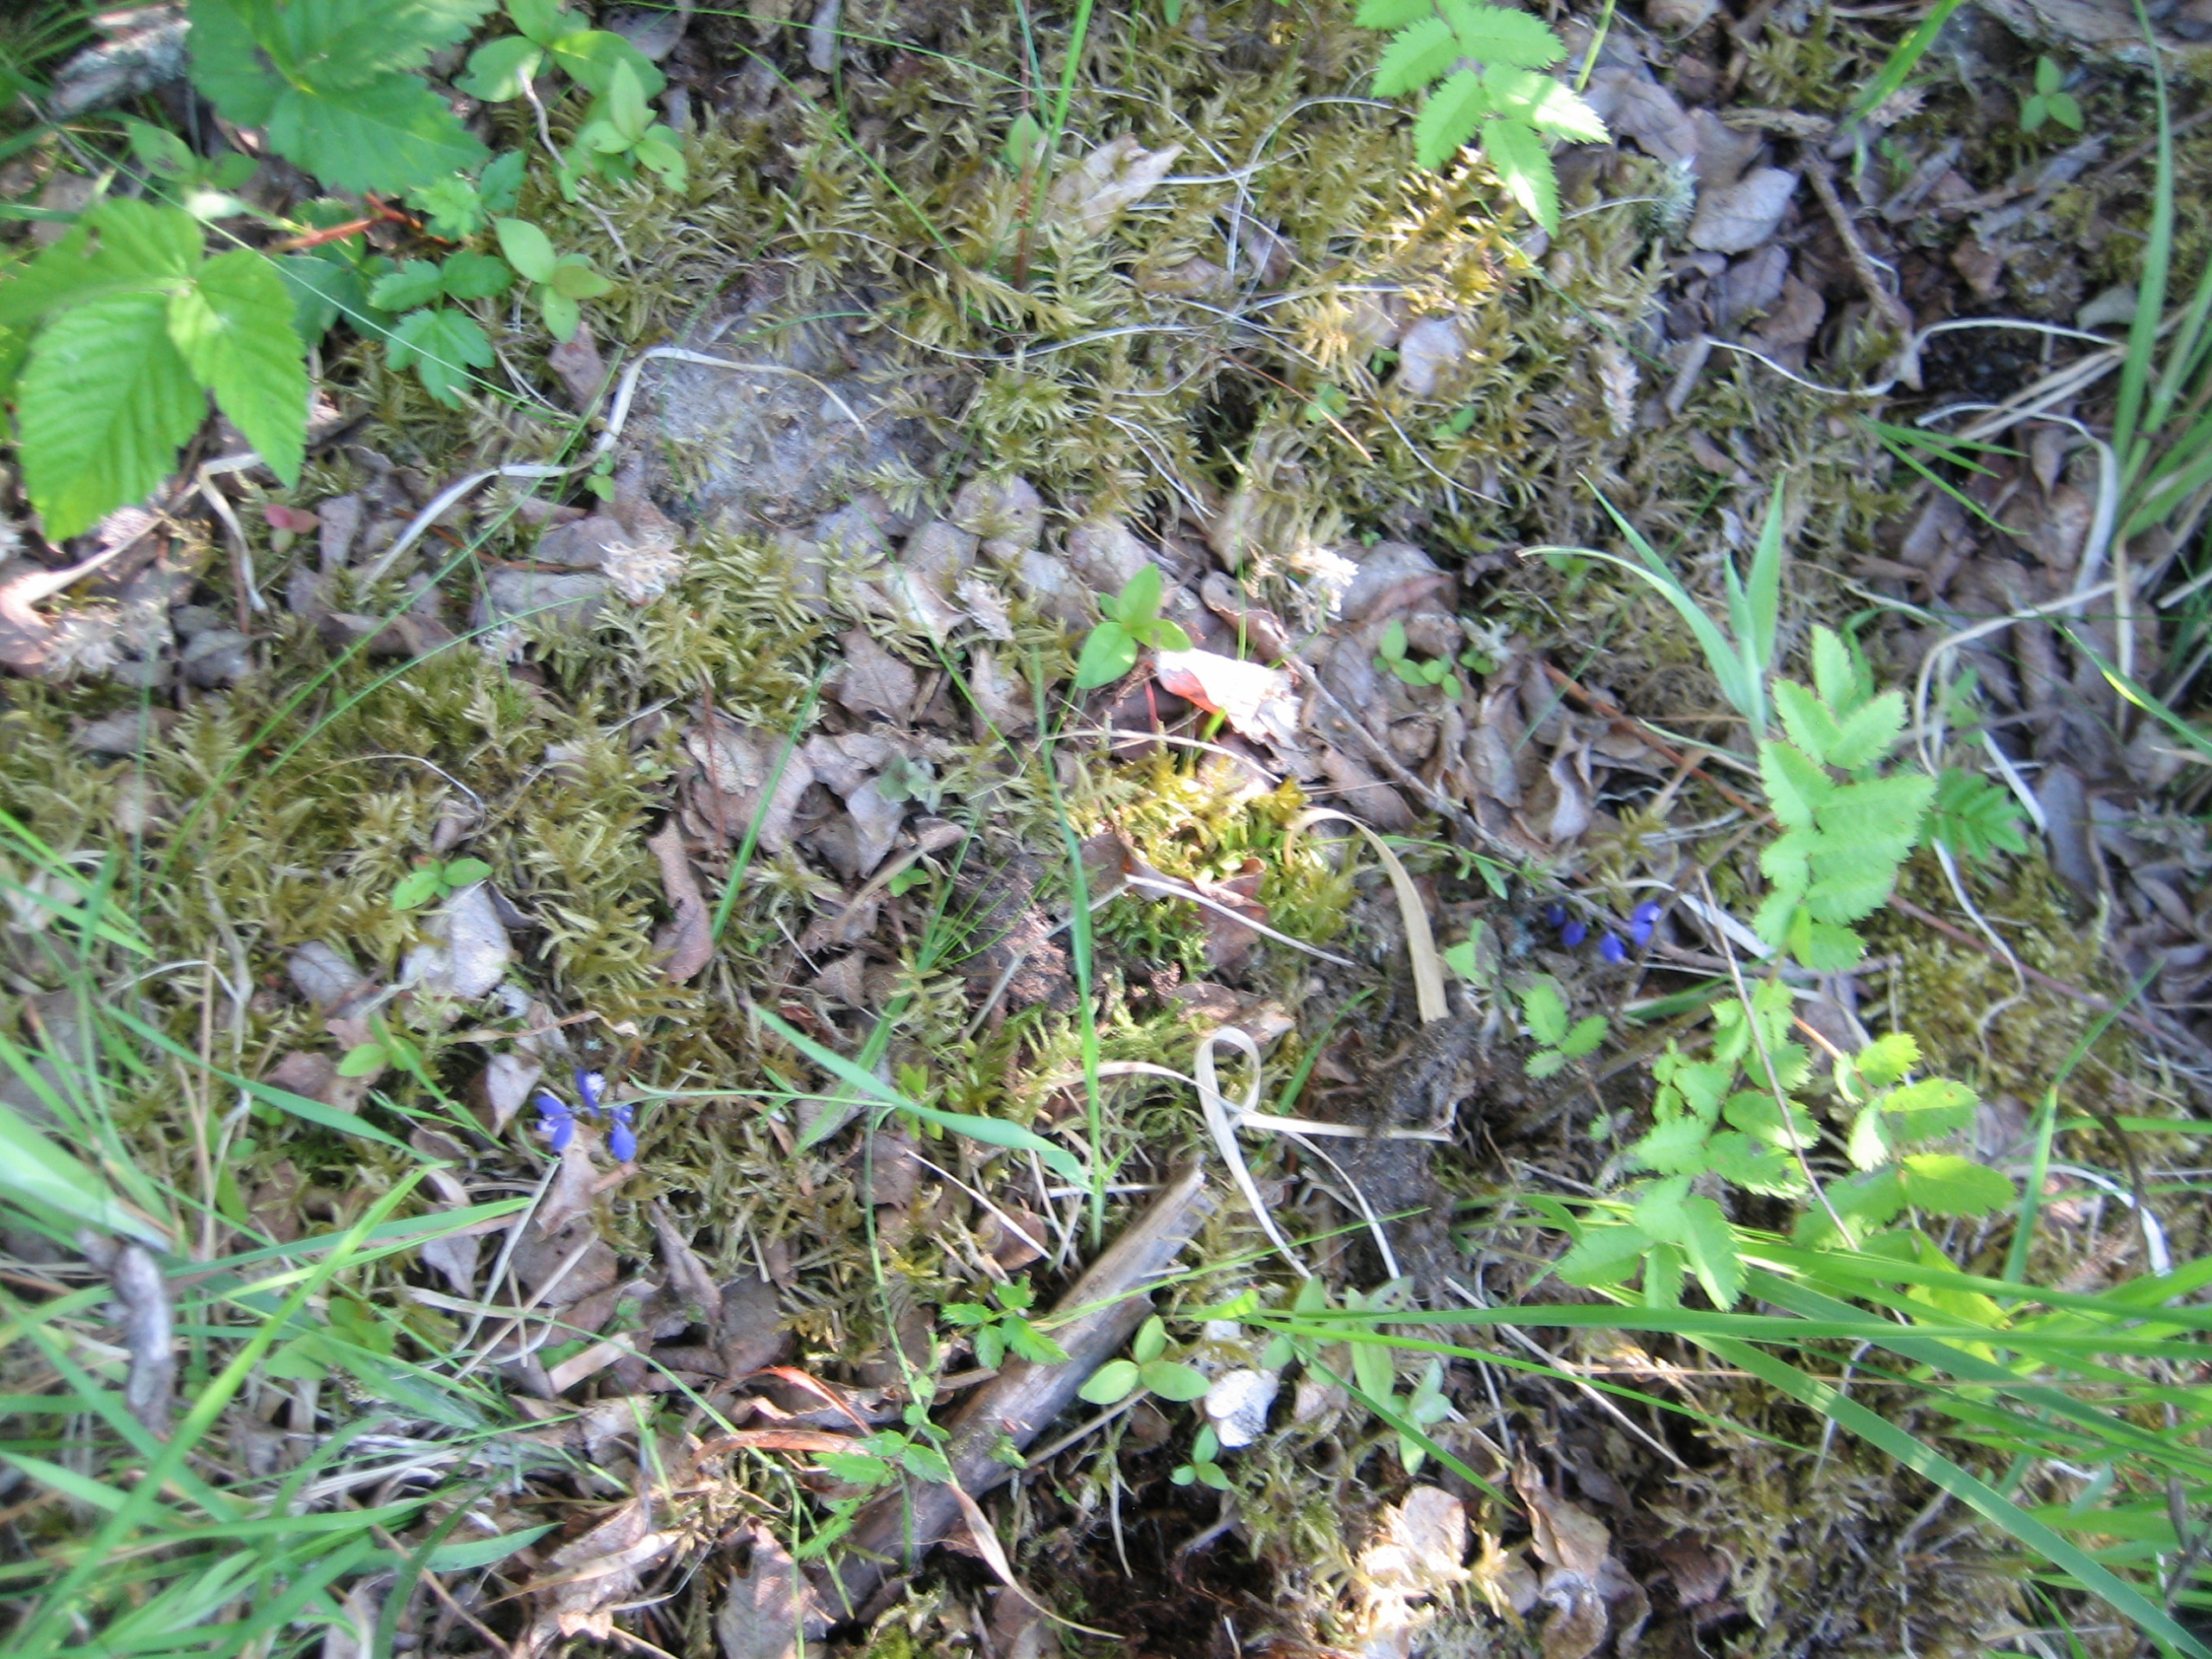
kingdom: Plantae
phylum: Tracheophyta
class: Magnoliopsida
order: Fabales
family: Polygalaceae
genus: Polygala
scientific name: Polygala serpyllifolia
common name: Spæd mælkeurt
